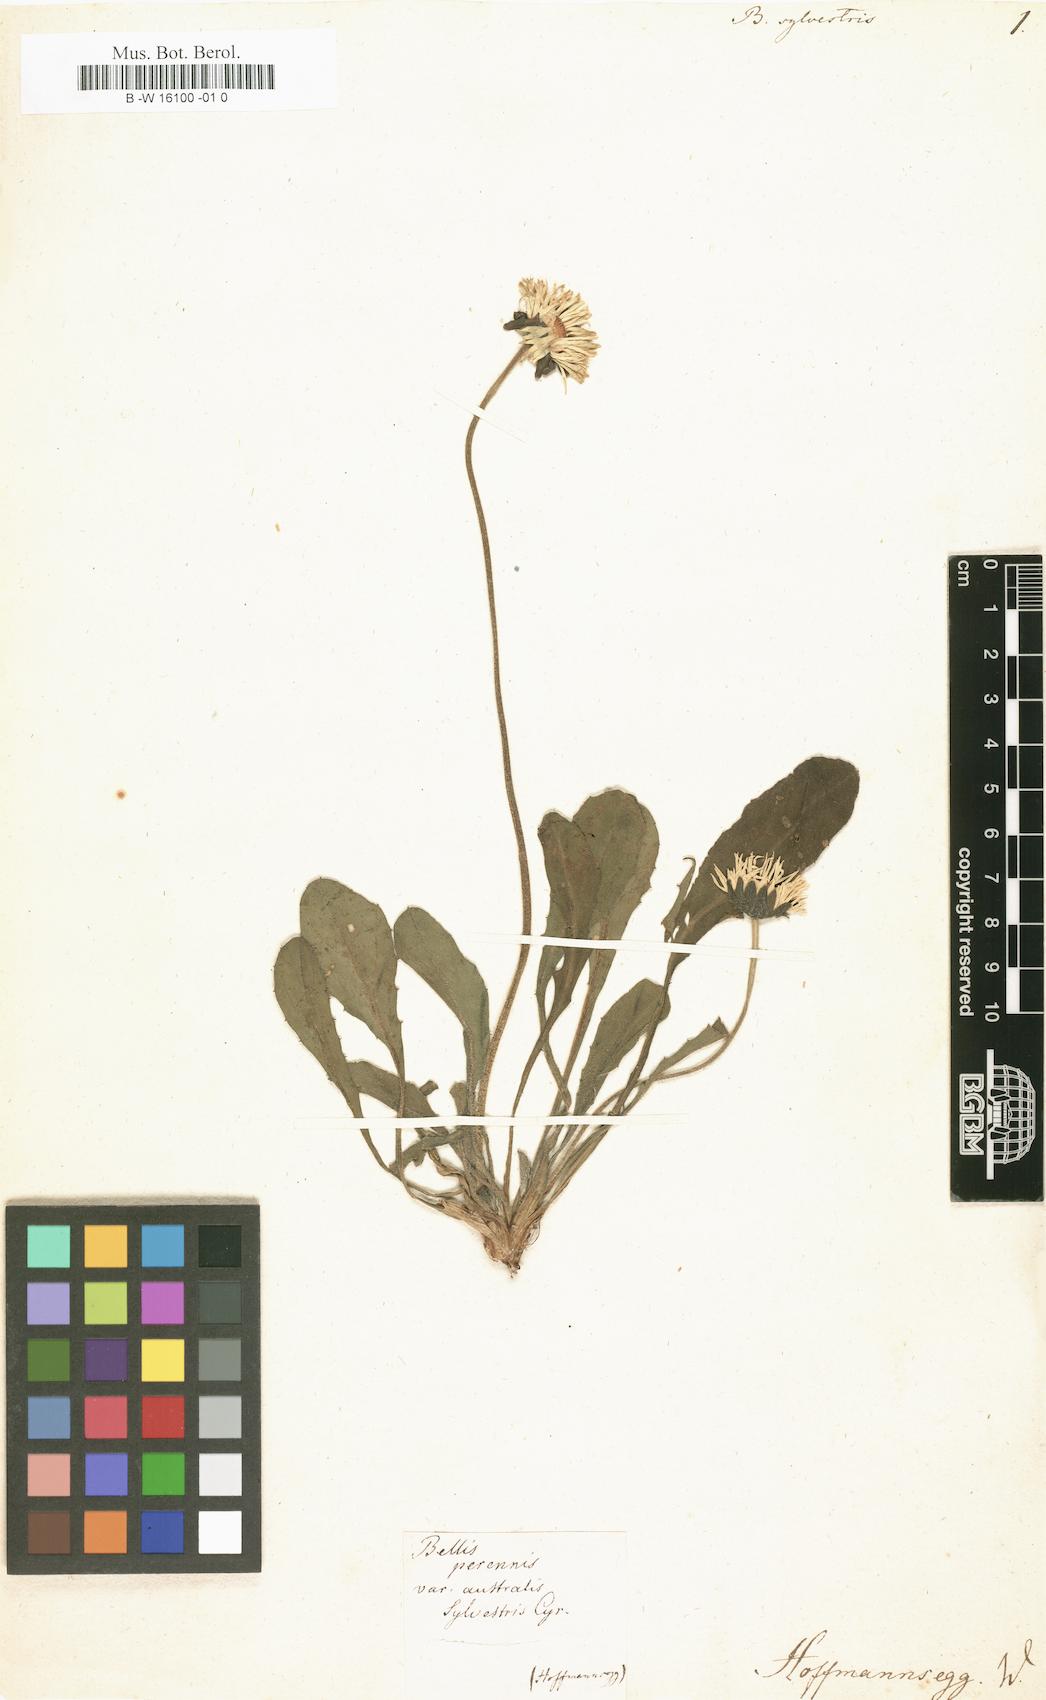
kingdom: Plantae
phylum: Tracheophyta
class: Magnoliopsida
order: Asterales
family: Asteraceae
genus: Bellis
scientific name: Bellis sylvestris
